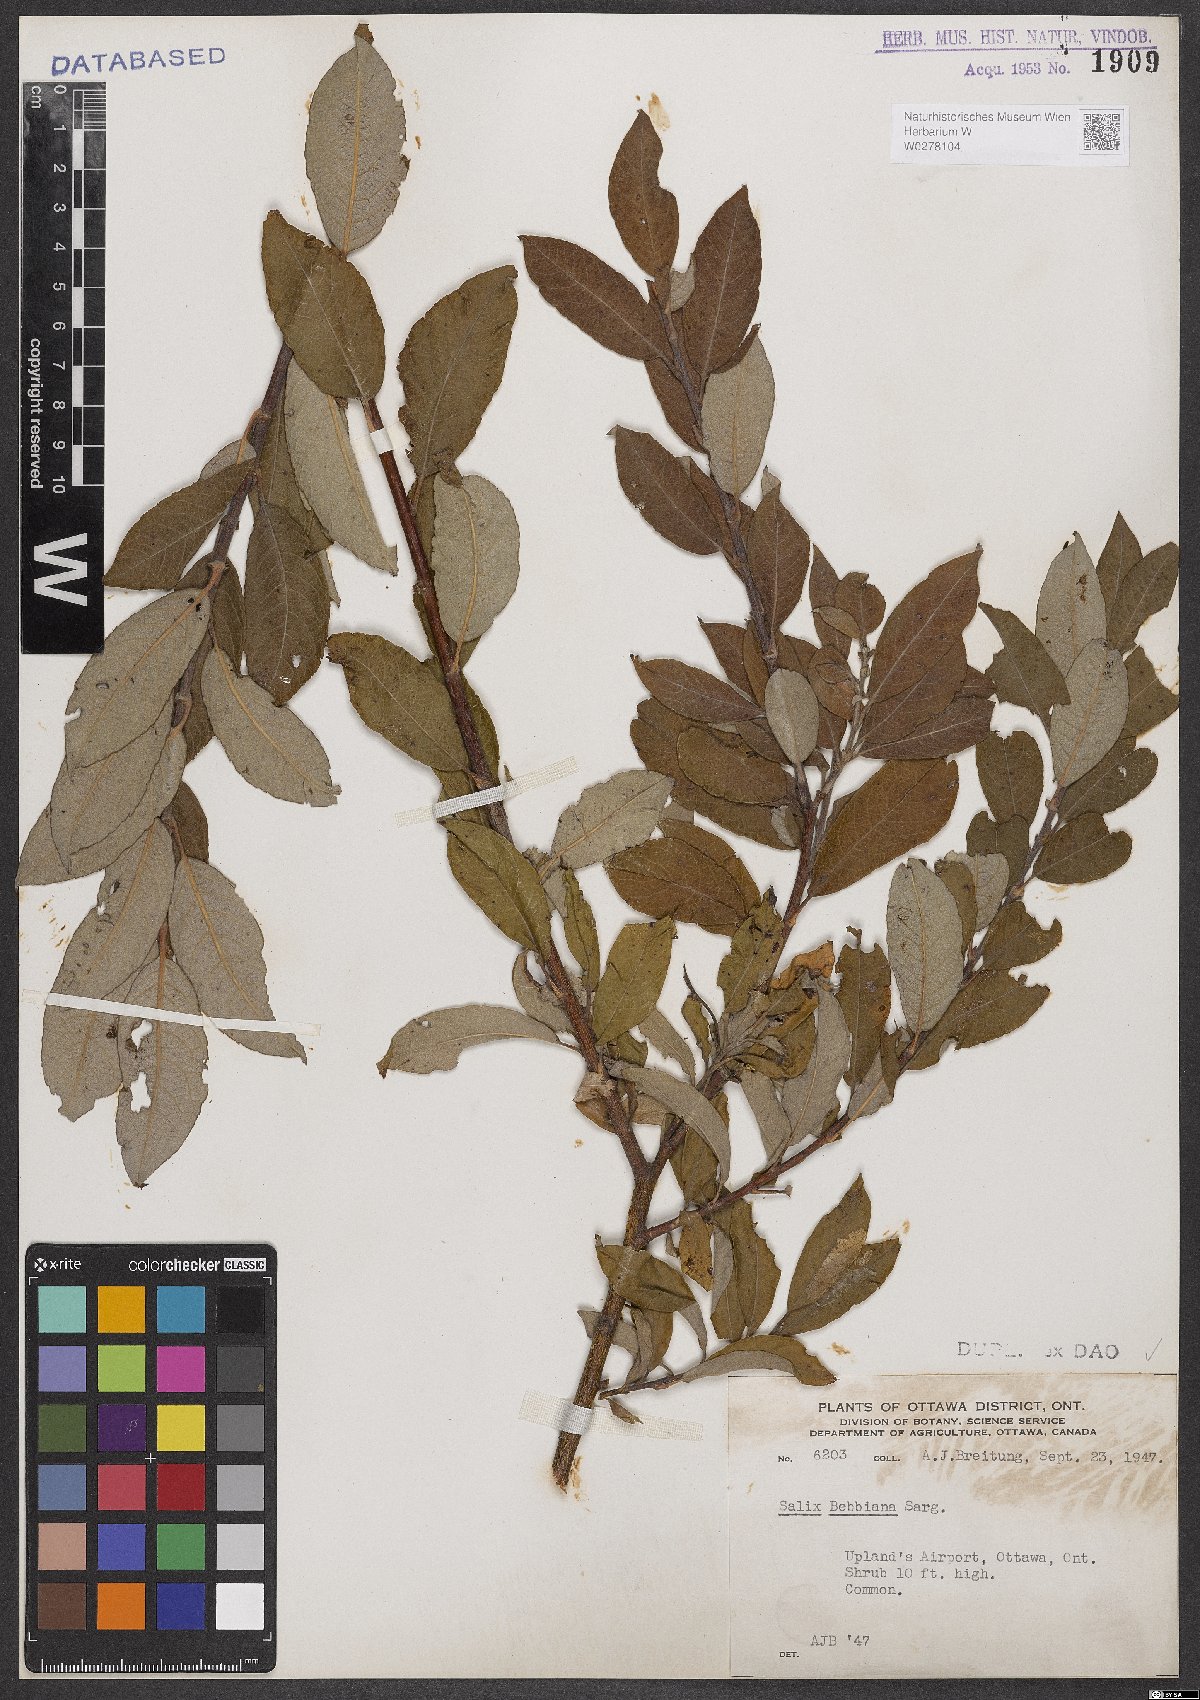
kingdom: Plantae
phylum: Tracheophyta
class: Magnoliopsida
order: Malpighiales
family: Salicaceae
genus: Salix
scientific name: Salix bebbiana
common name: Bebb's willow
